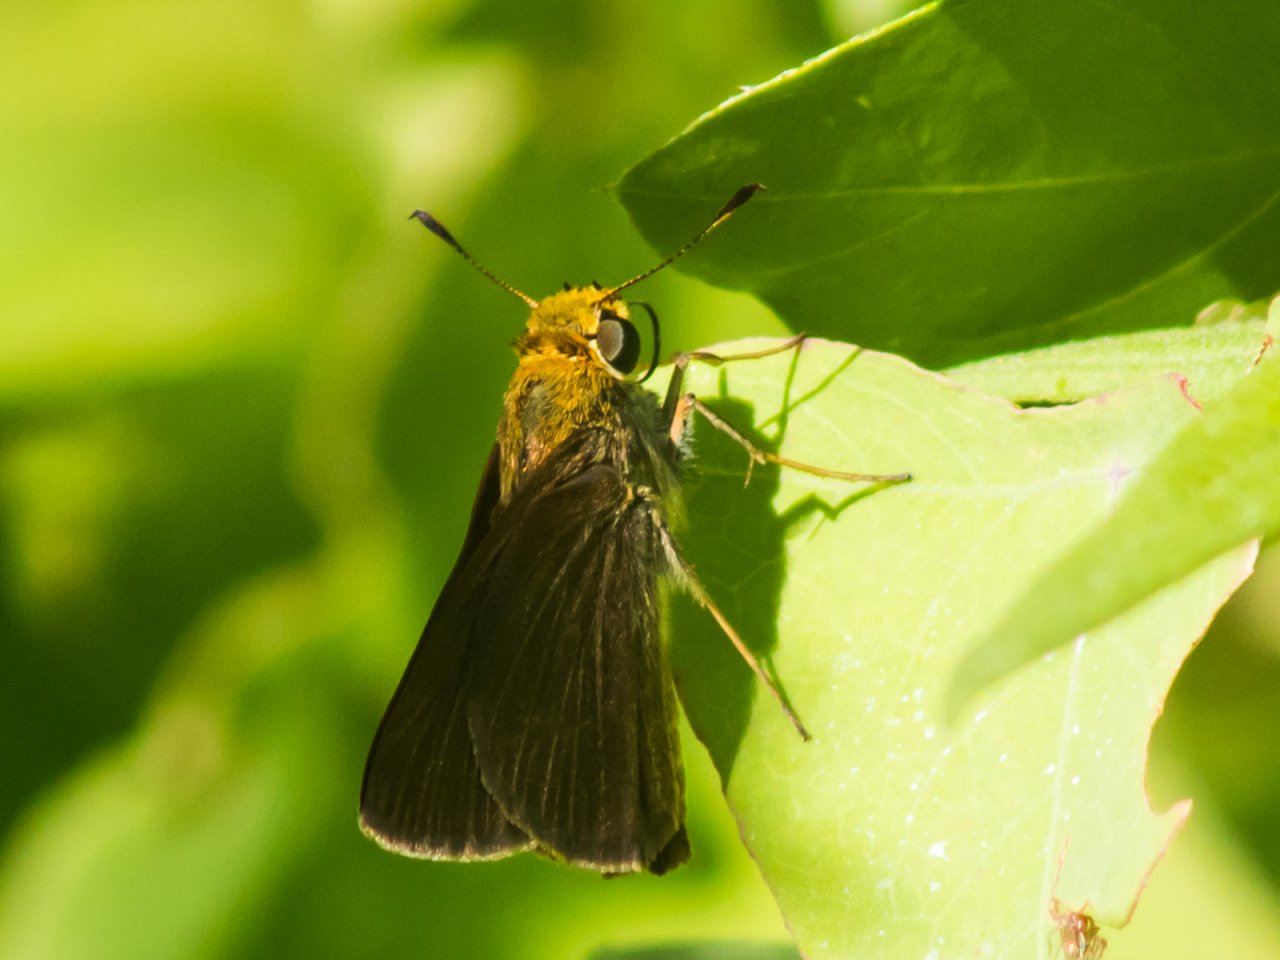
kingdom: Animalia
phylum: Arthropoda
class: Insecta
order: Lepidoptera
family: Hesperiidae
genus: Euphyes
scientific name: Euphyes vestris
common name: Dun Skipper
